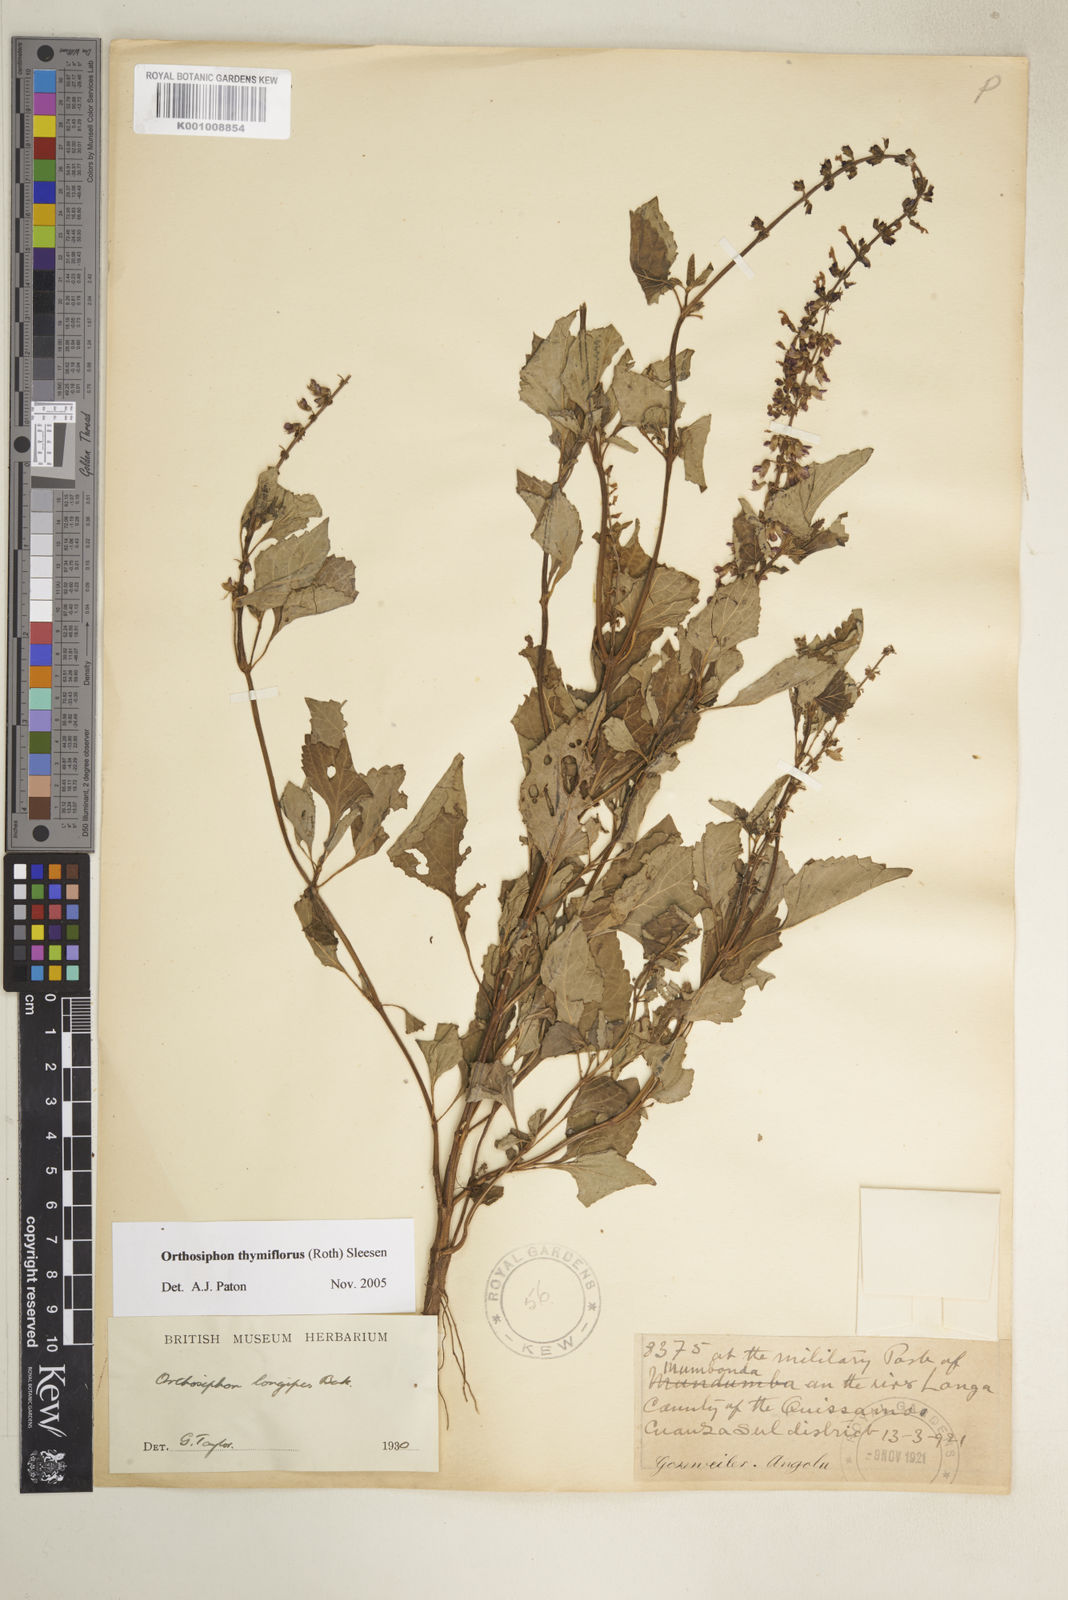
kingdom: Plantae
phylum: Tracheophyta
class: Magnoliopsida
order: Lamiales
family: Lamiaceae
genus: Orthosiphon
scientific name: Orthosiphon thymiflorus
